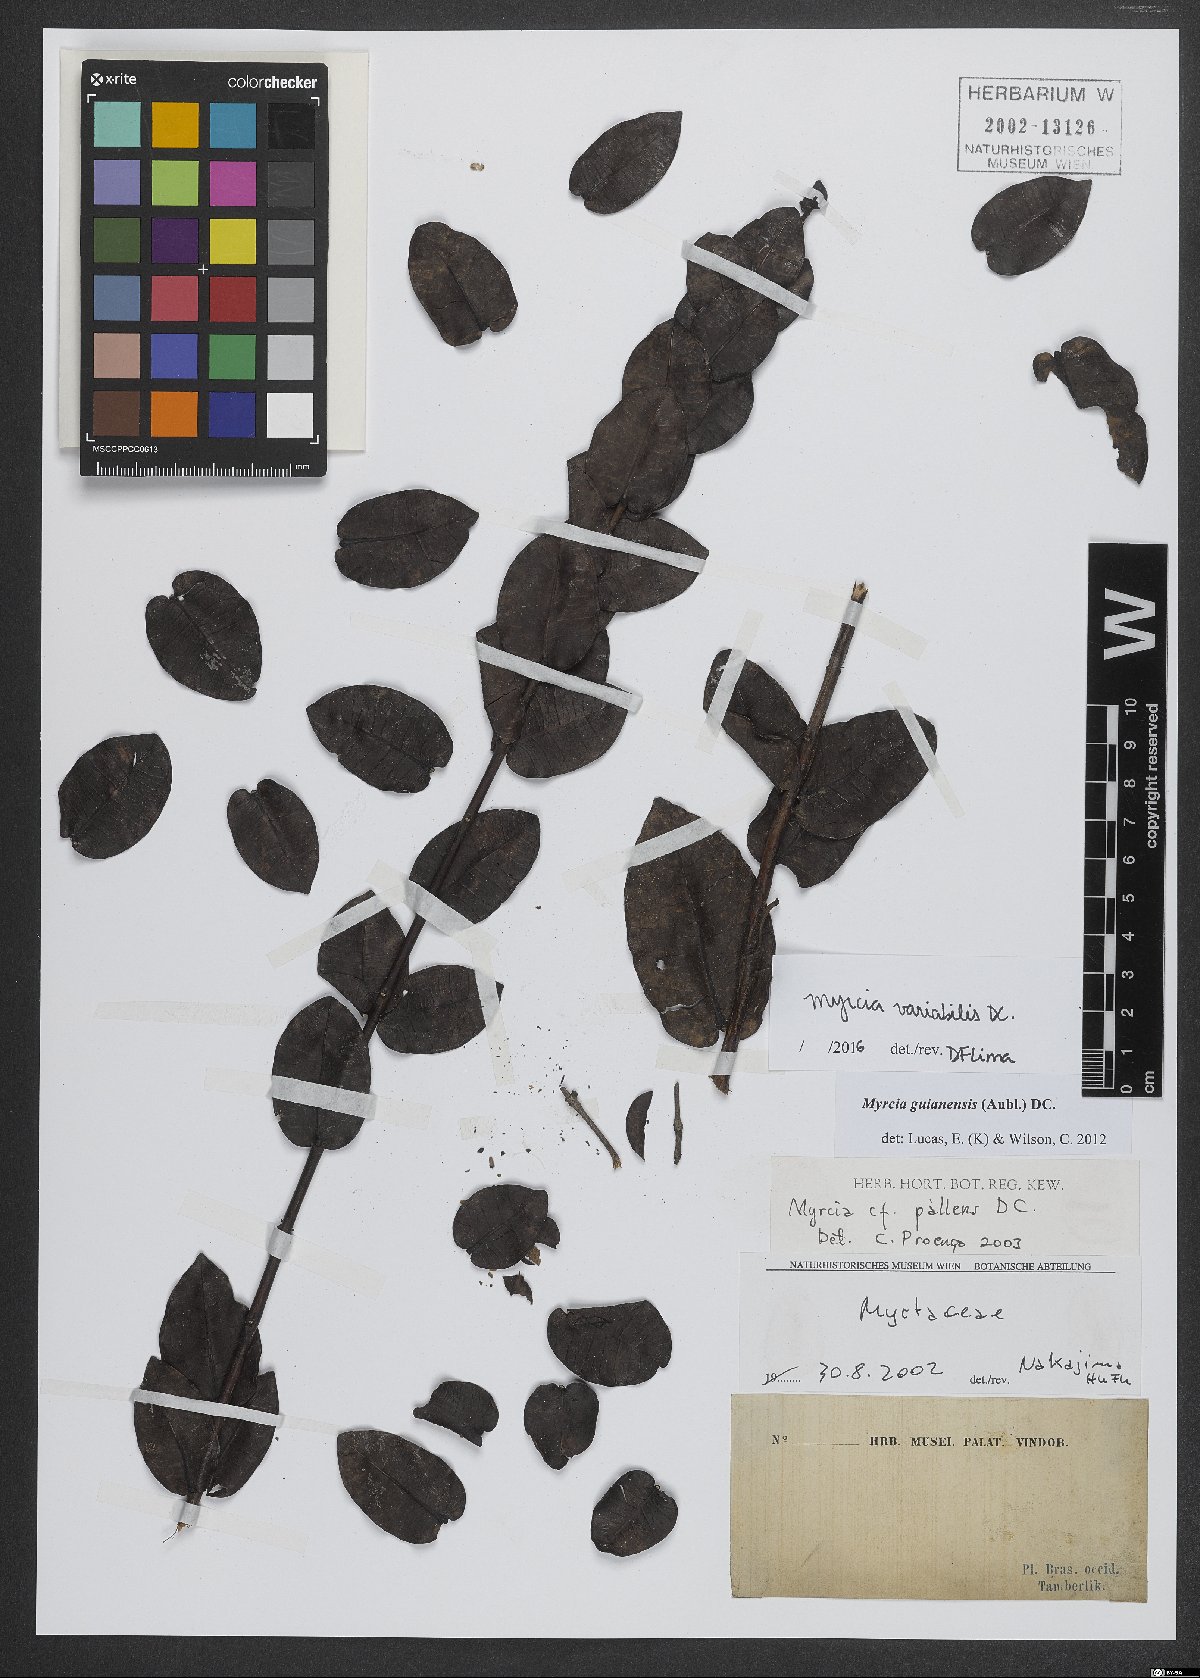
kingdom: Plantae
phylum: Tracheophyta
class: Magnoliopsida
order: Myrtales
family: Myrtaceae
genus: Myrcia
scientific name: Myrcia variabilis
